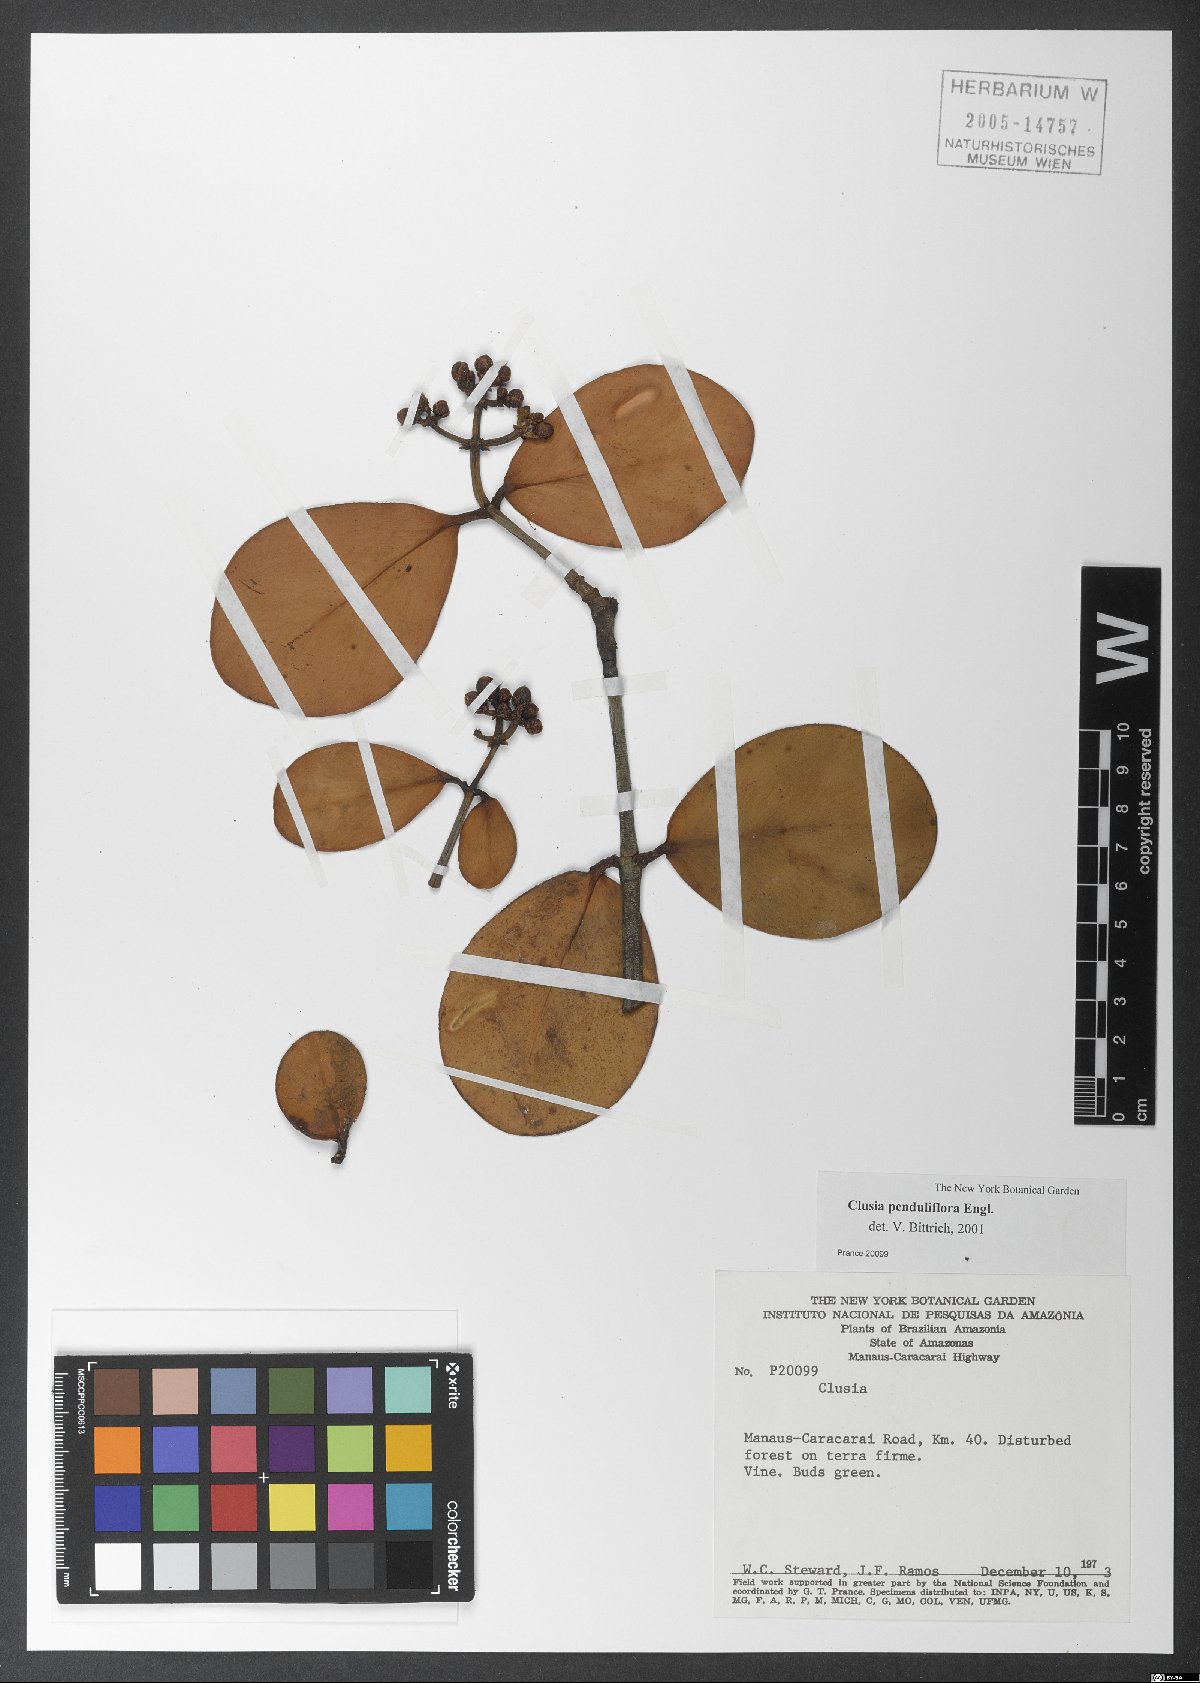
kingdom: Plantae
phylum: Tracheophyta
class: Magnoliopsida
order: Malpighiales
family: Clusiaceae
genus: Clusia
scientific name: Clusia penduliflora
